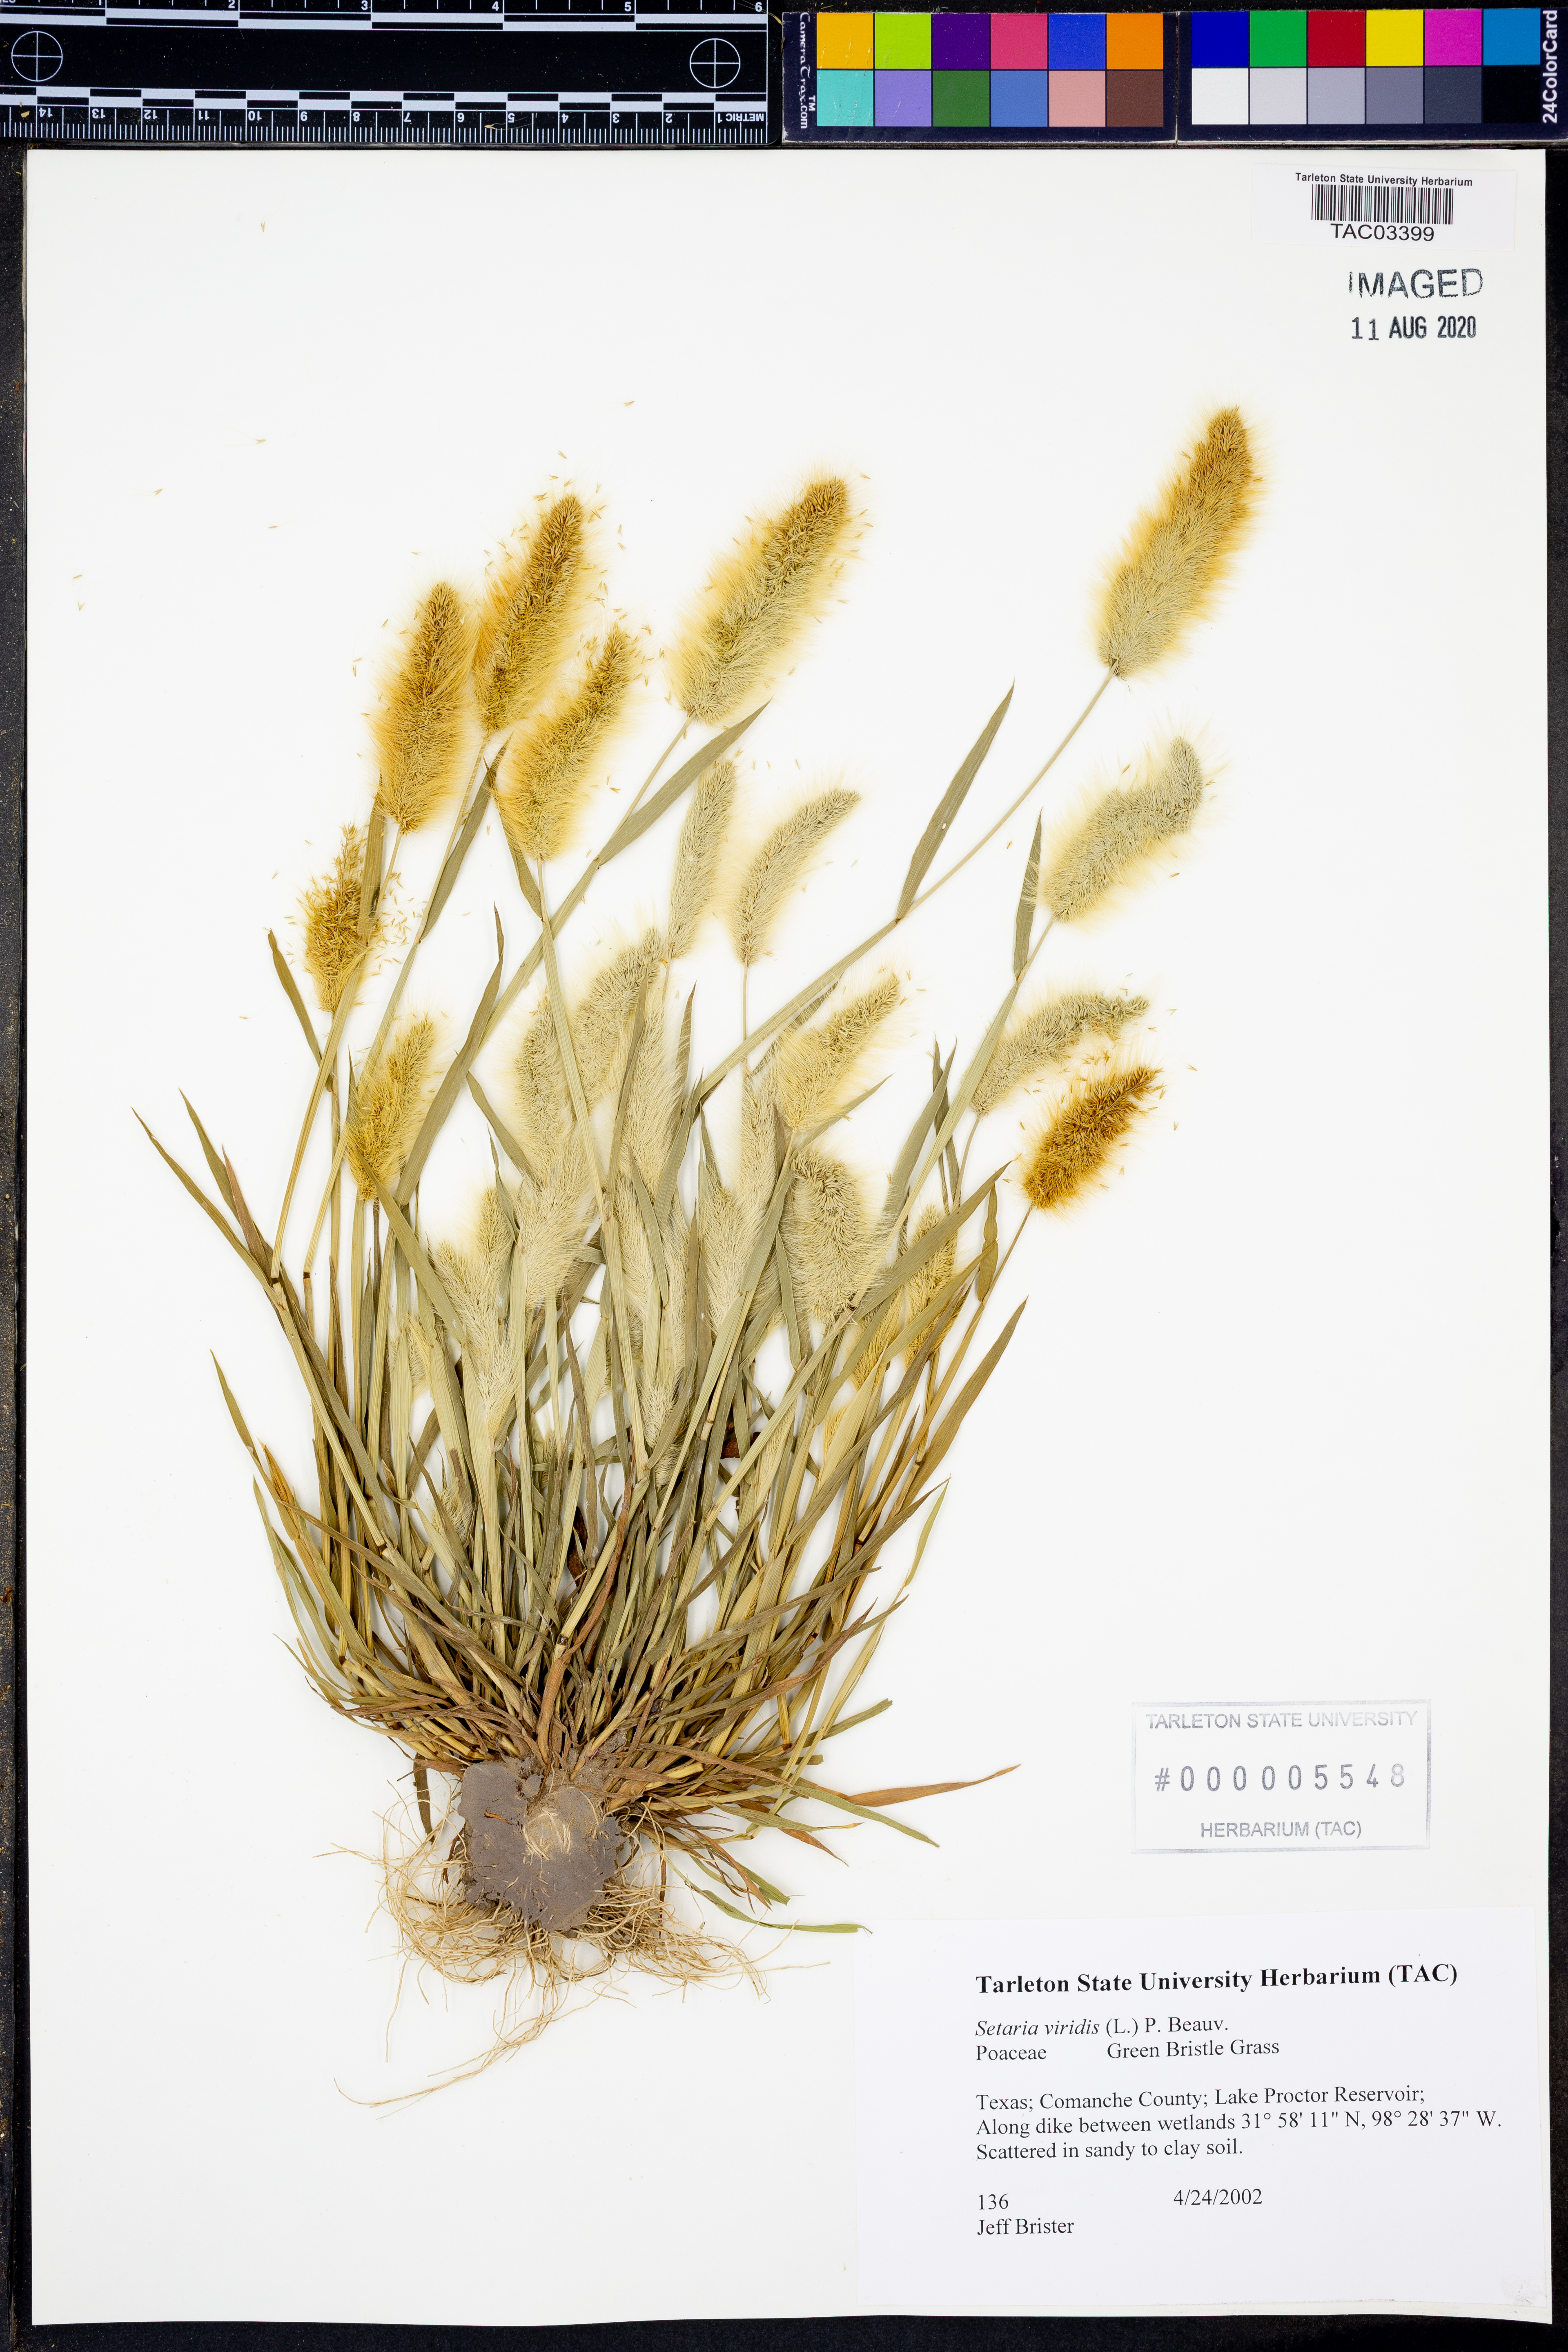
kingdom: Plantae
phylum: Tracheophyta
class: Liliopsida
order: Poales
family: Poaceae
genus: Setaria
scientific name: Setaria viridis
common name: Green bristlegrass
